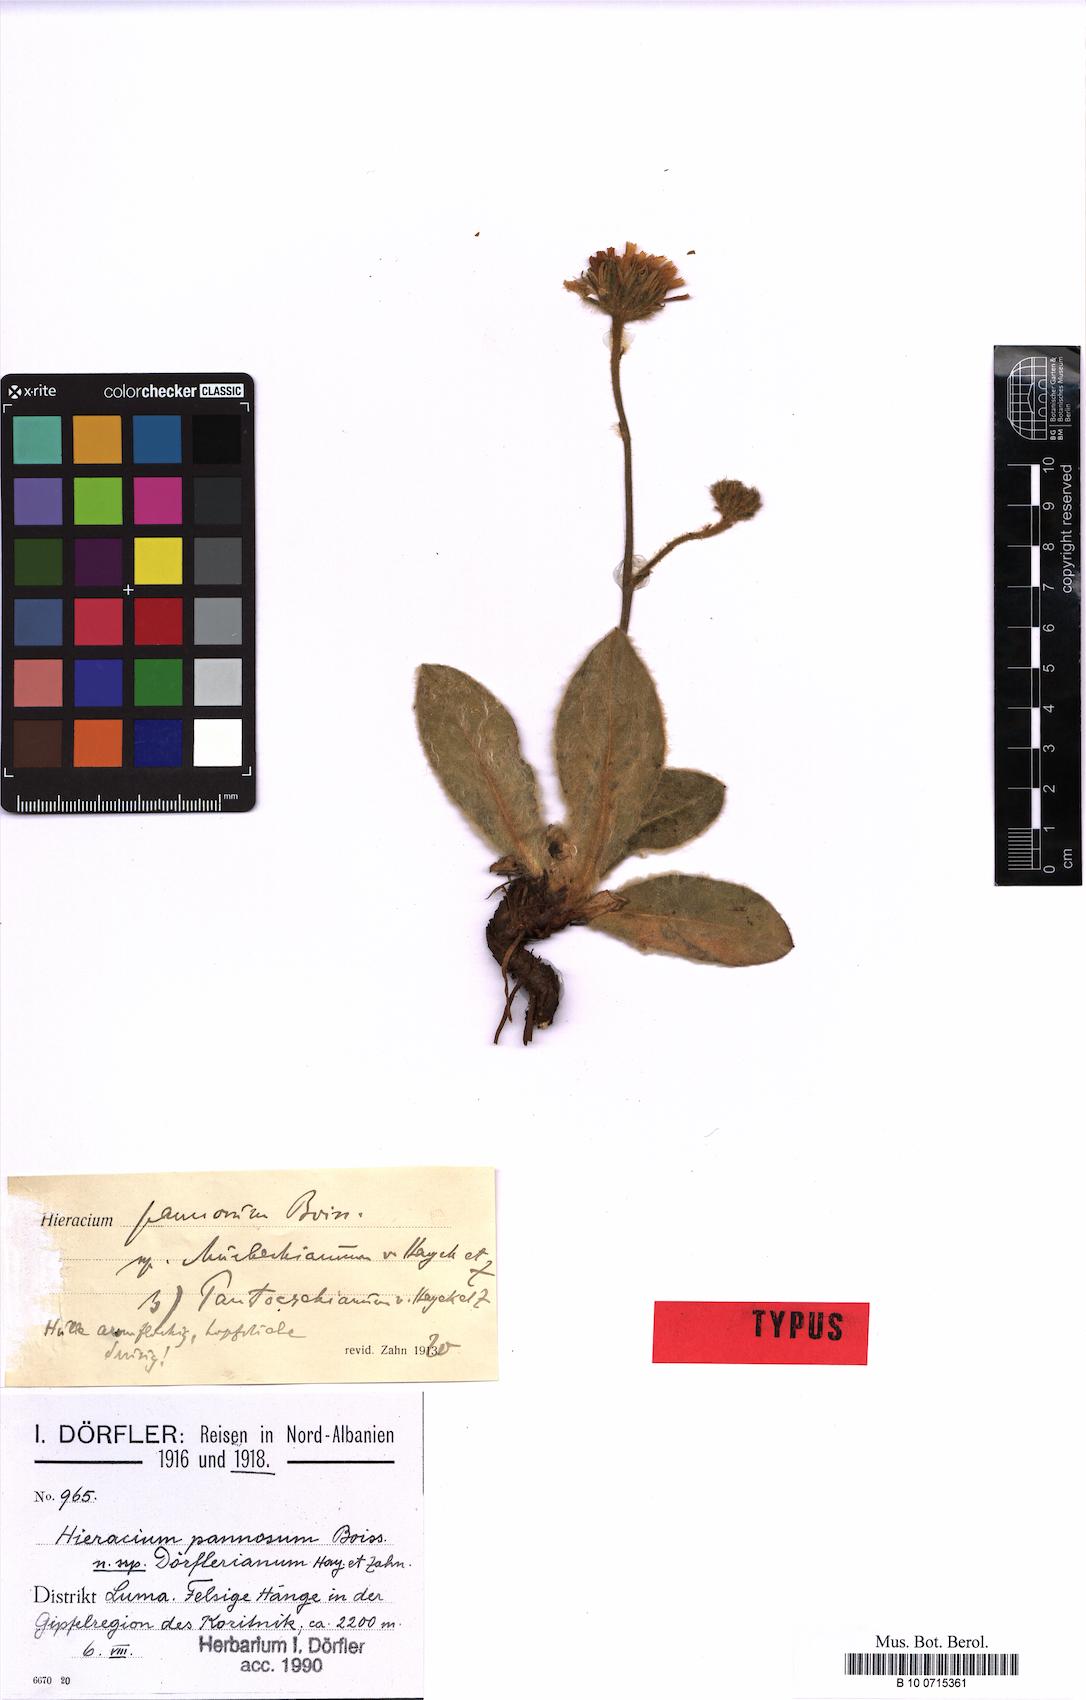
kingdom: Plantae
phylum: Tracheophyta
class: Magnoliopsida
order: Asterales
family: Asteraceae
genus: Hieracium
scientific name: Hieracium pannosum
